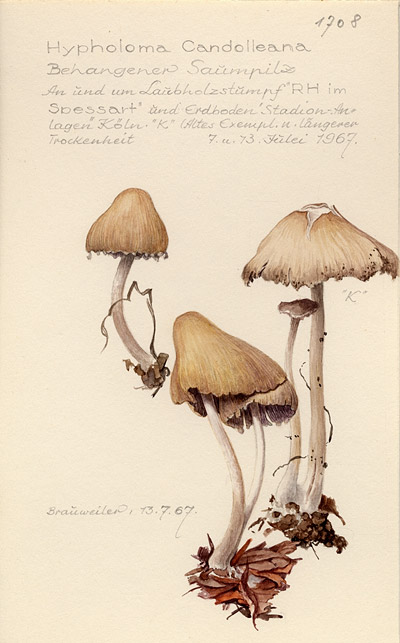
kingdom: Fungi
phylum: Basidiomycota
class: Agaricomycetes
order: Agaricales
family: Psathyrellaceae
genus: Candolleomyces
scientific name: Candolleomyces candolleanus
